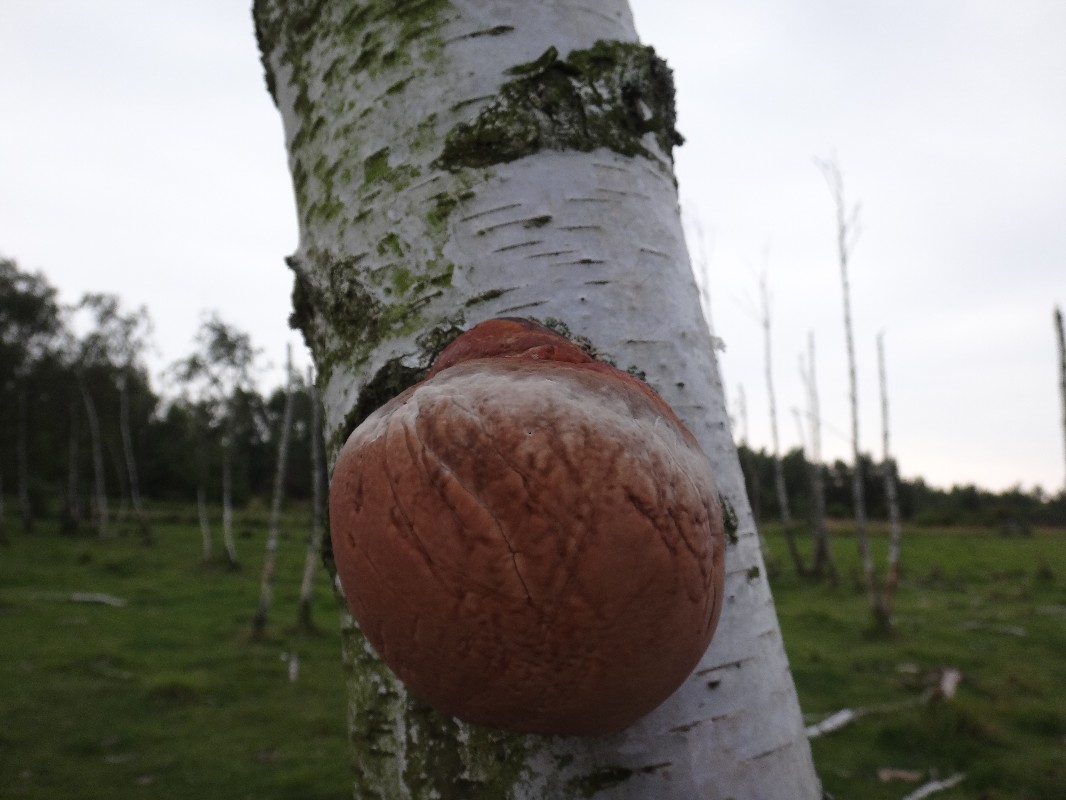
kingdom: Fungi
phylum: Basidiomycota
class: Agaricomycetes
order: Polyporales
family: Fomitopsidaceae
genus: Fomitopsis
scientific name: Fomitopsis pinicola
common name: randbæltet hovporesvamp
